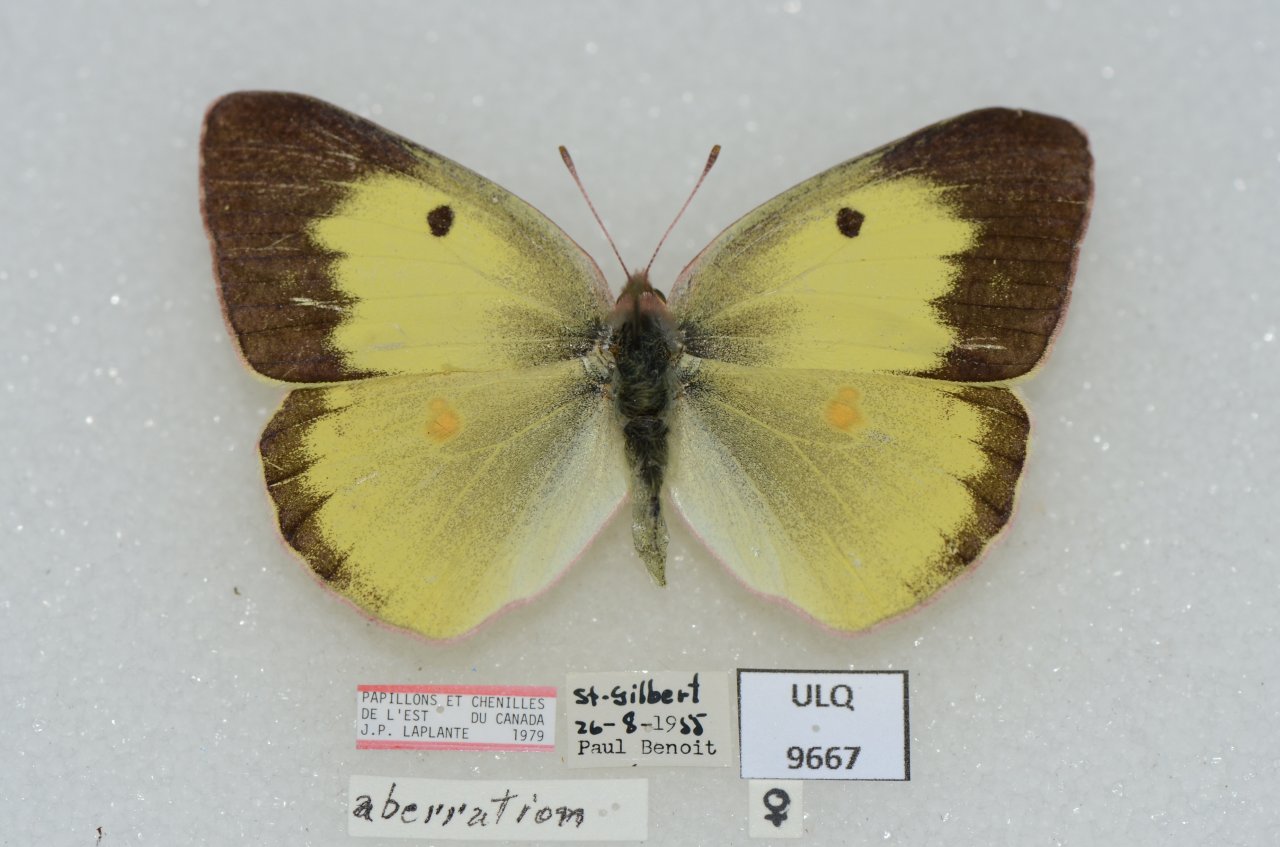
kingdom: Animalia
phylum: Arthropoda
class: Insecta
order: Lepidoptera
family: Pieridae
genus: Colias
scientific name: Colias philodice
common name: Clouded Sulphur
